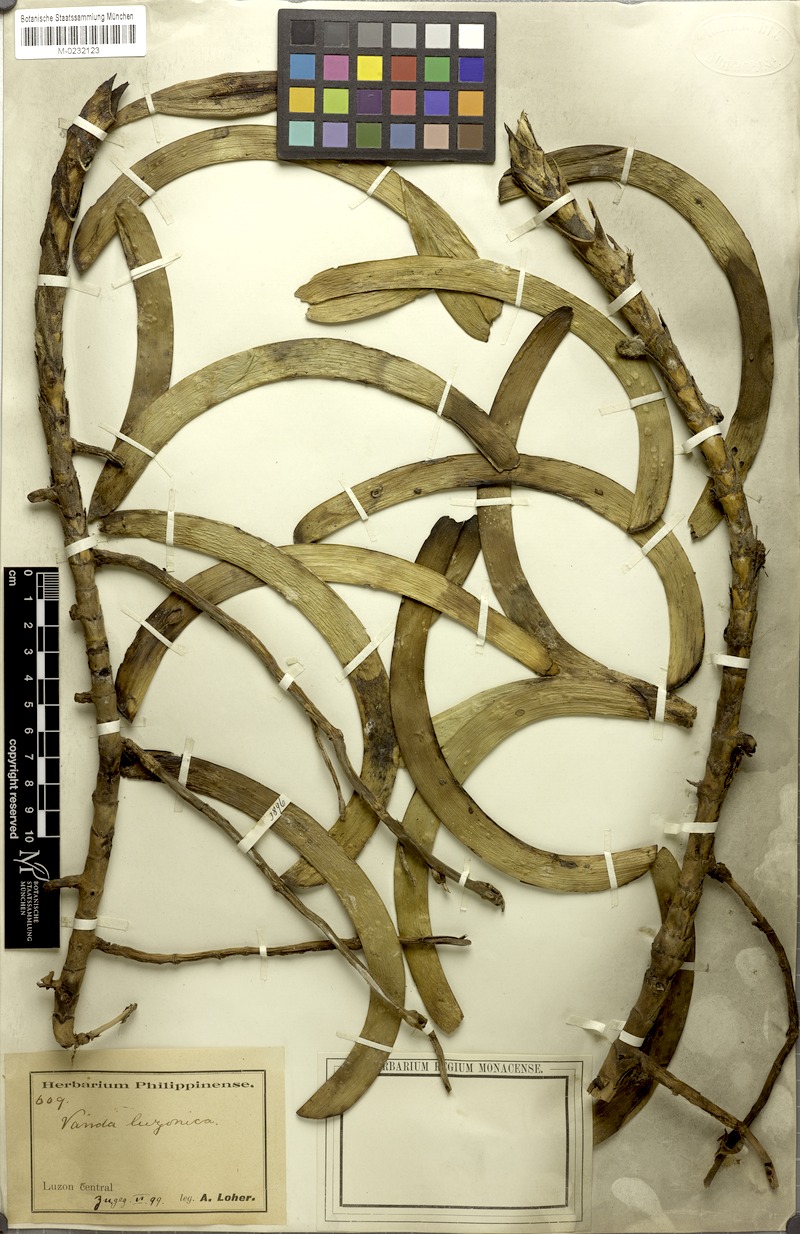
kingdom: Plantae
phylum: Tracheophyta
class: Liliopsida
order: Asparagales
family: Orchidaceae
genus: Vanda
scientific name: Vanda luzonica
